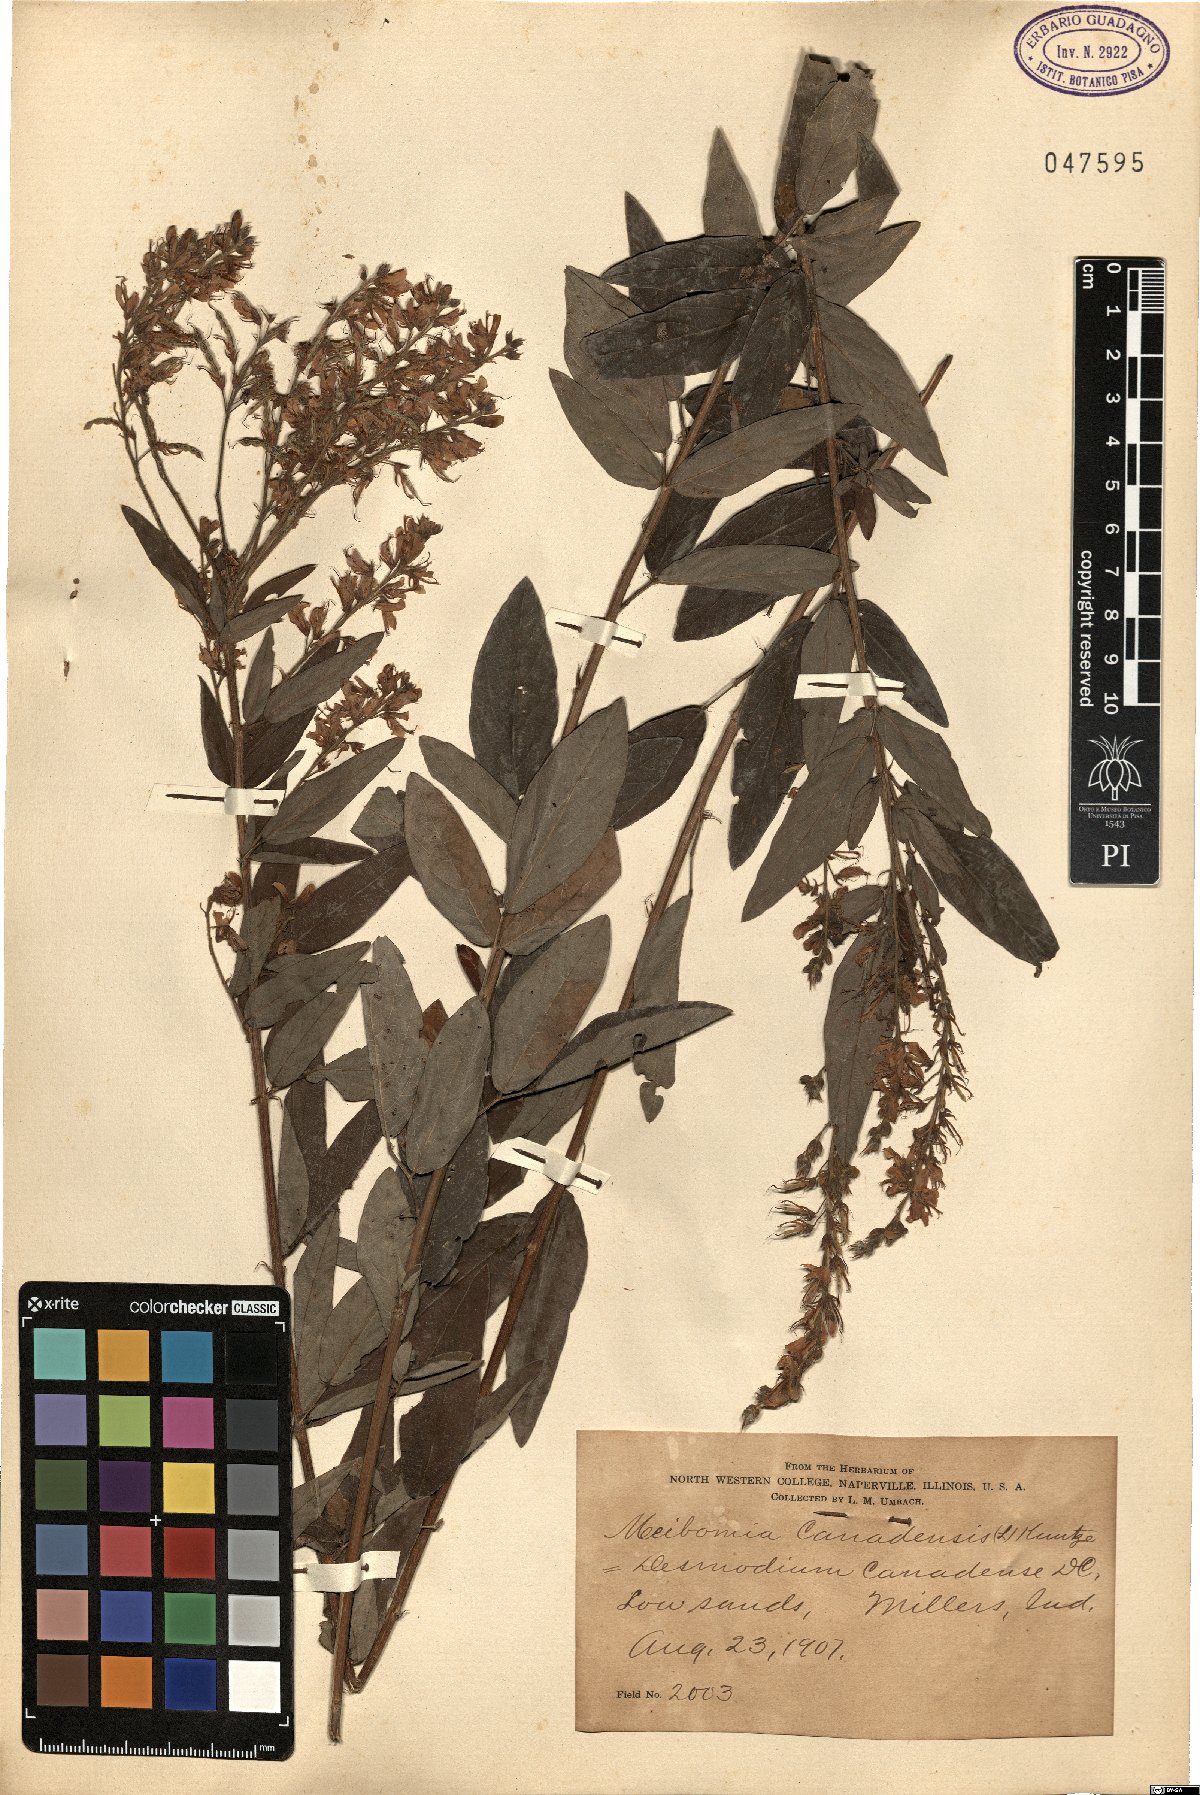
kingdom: Plantae
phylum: Tracheophyta
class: Magnoliopsida
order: Fabales
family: Fabaceae
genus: Desmodium
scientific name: Desmodium canadense
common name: Canada tick-trefoil
